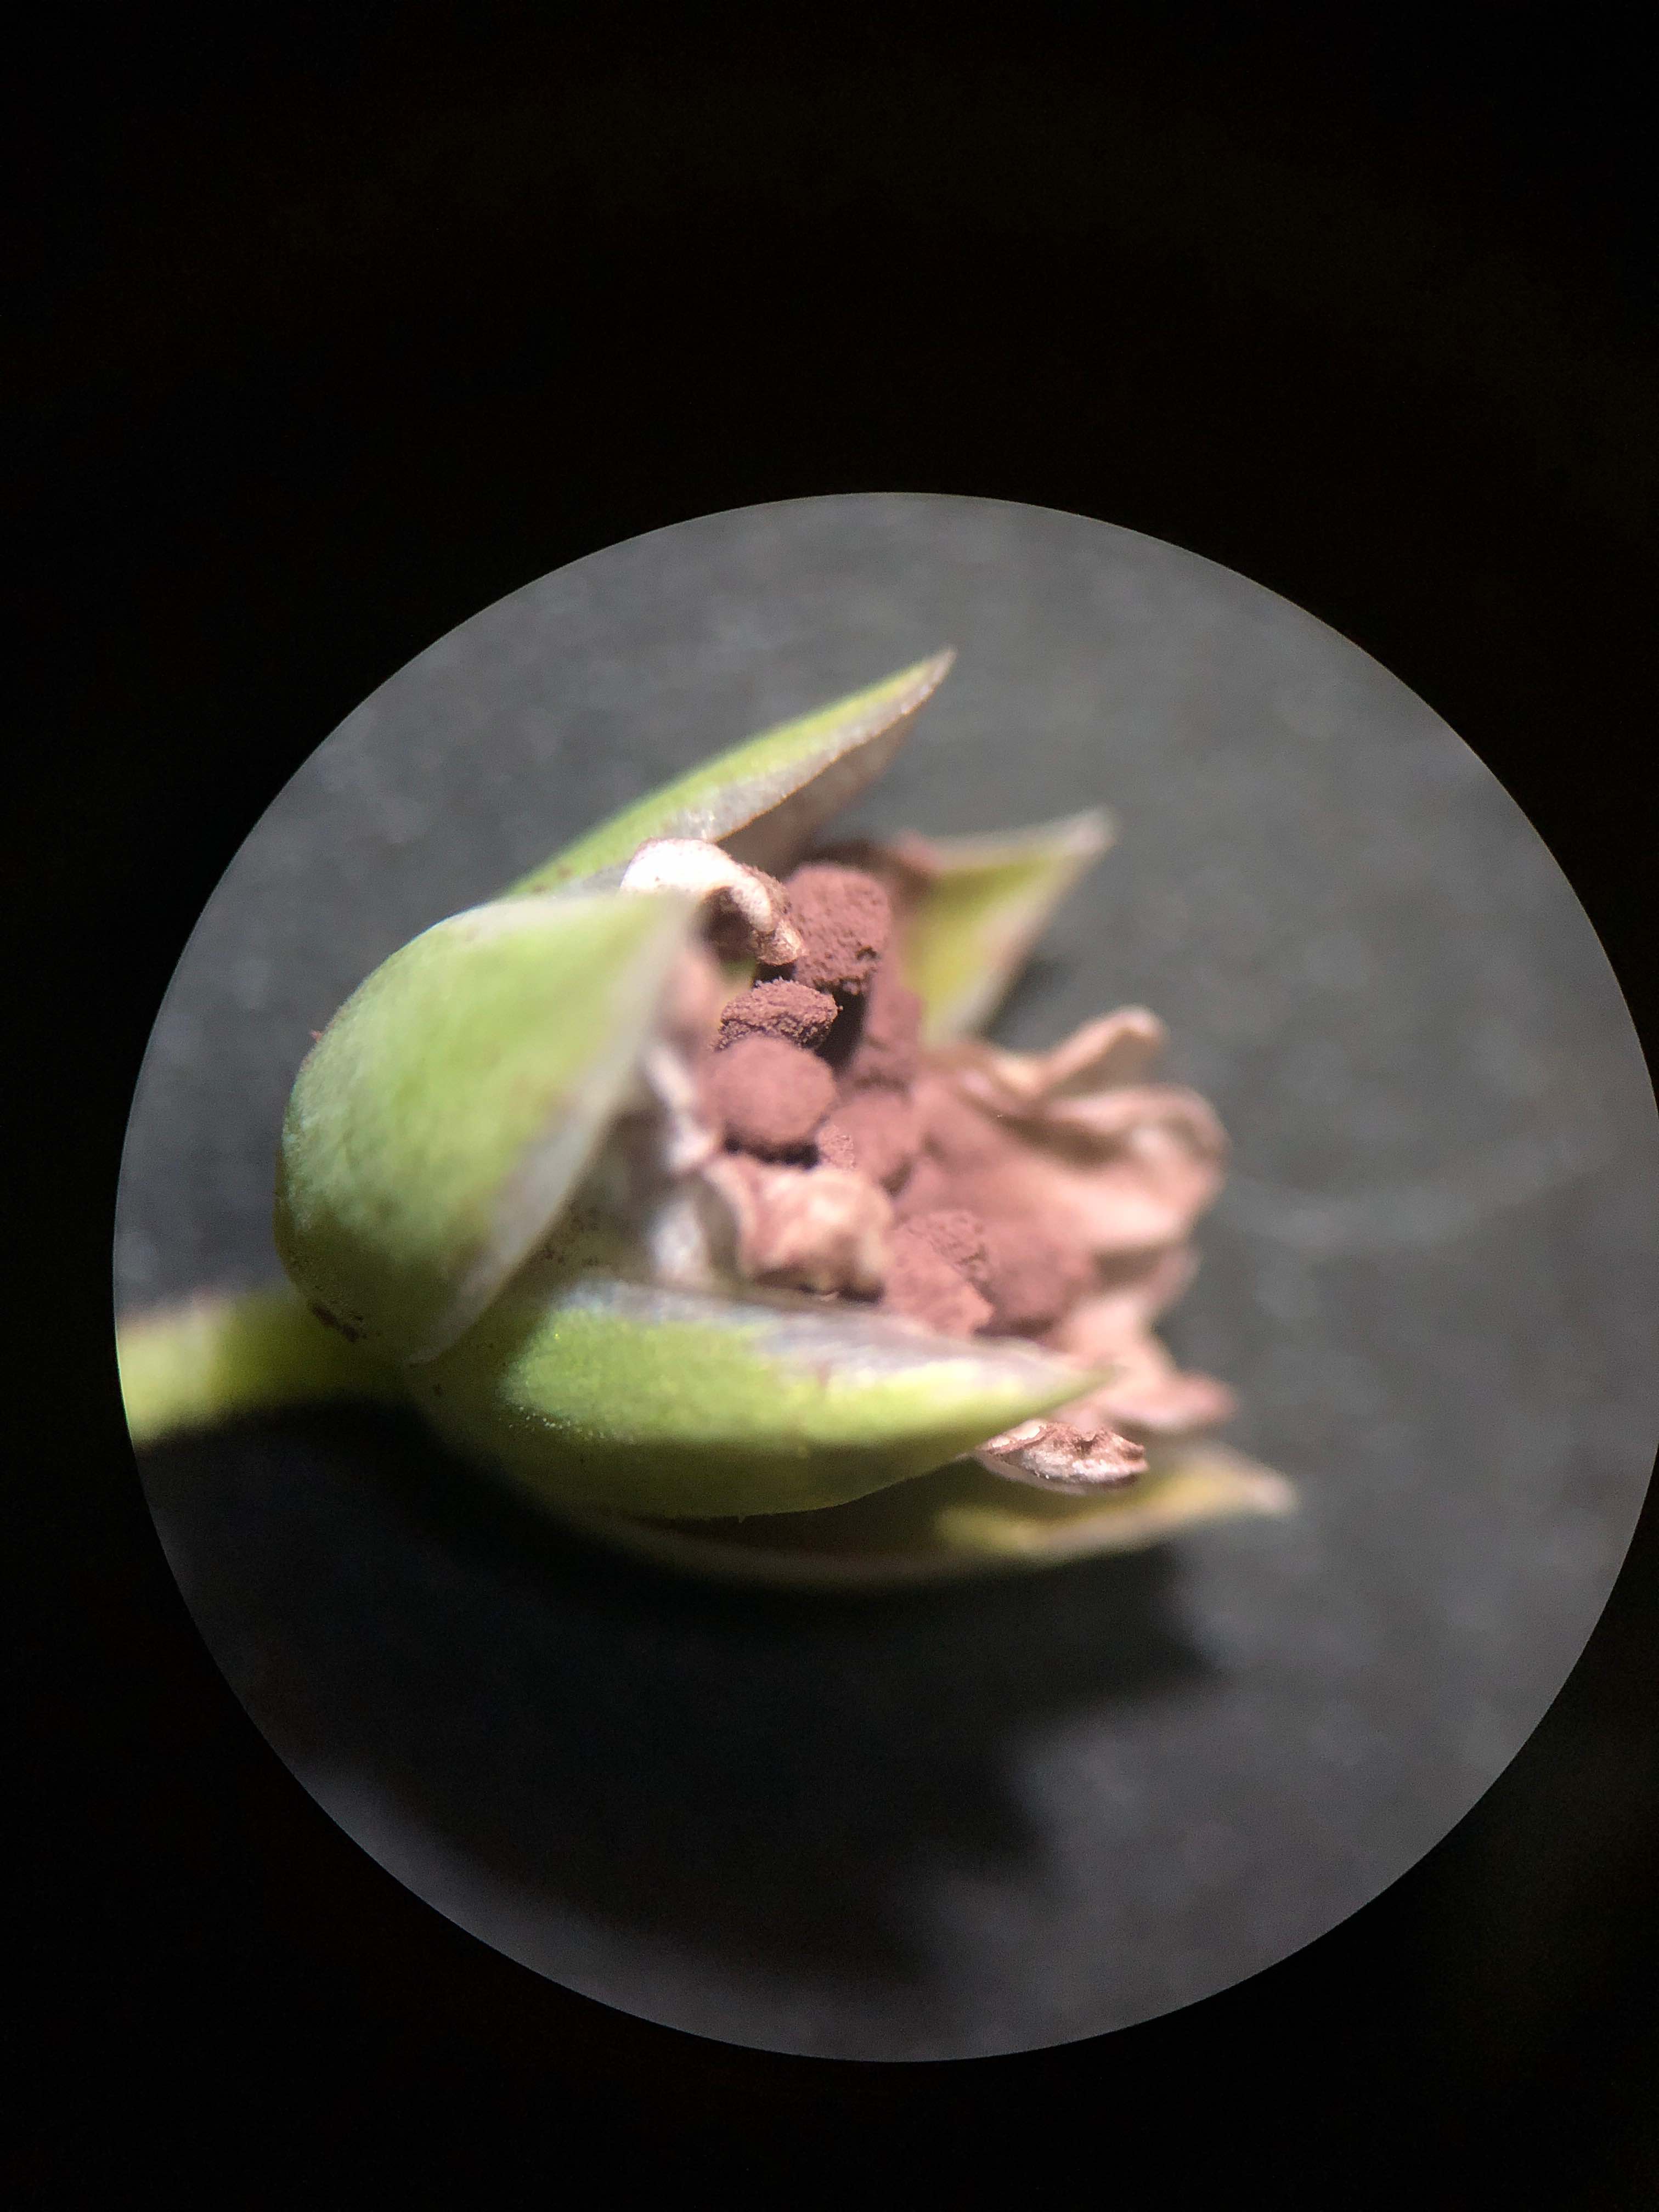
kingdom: Fungi
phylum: Basidiomycota
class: Microbotryomycetes
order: Microbotryales
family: Microbotryaceae
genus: Microbotryum
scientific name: Microbotryum stellariae
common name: fladstjerne-støvbladrust
